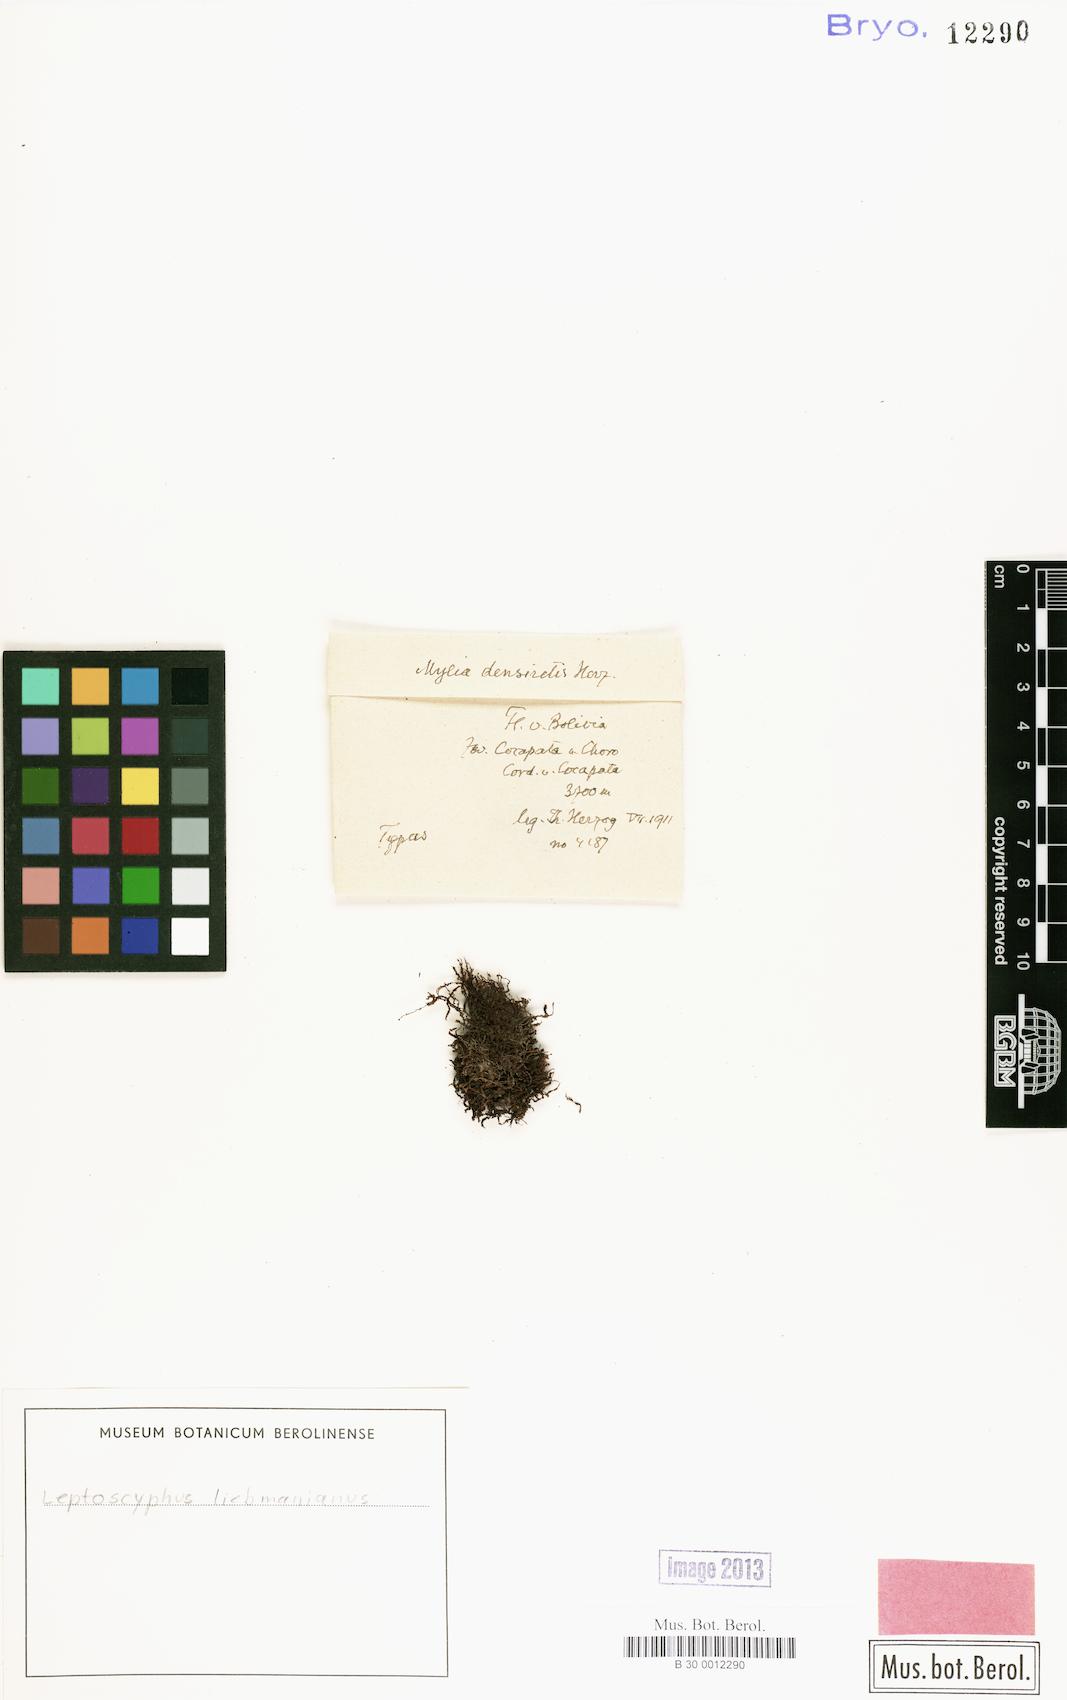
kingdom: Plantae
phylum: Marchantiophyta
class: Jungermanniopsida
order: Jungermanniales
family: Lophocoleaceae
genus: Leptoscyphus
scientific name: Leptoscyphus porphyrius
